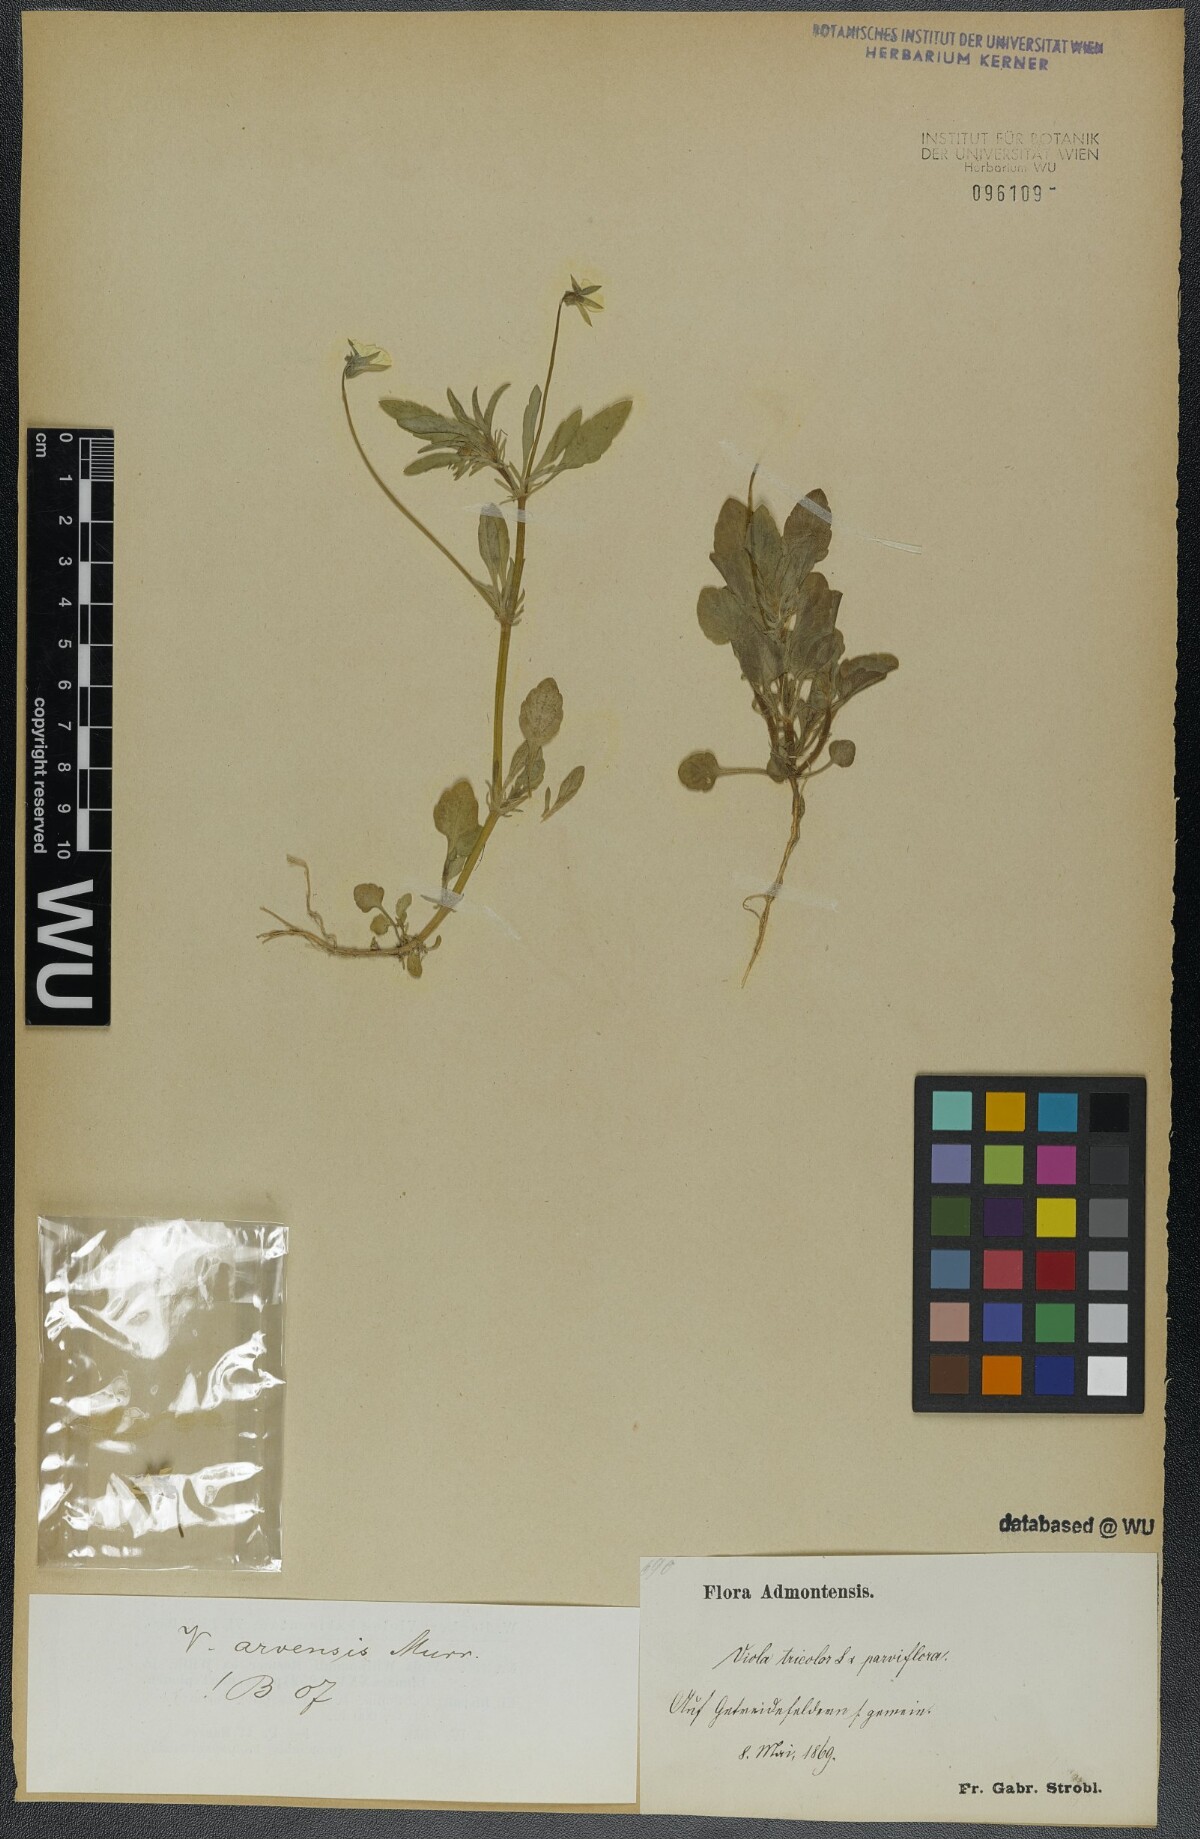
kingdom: Plantae
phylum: Tracheophyta
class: Magnoliopsida
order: Malpighiales
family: Violaceae
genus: Viola
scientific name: Viola arvensis
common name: Field pansy
